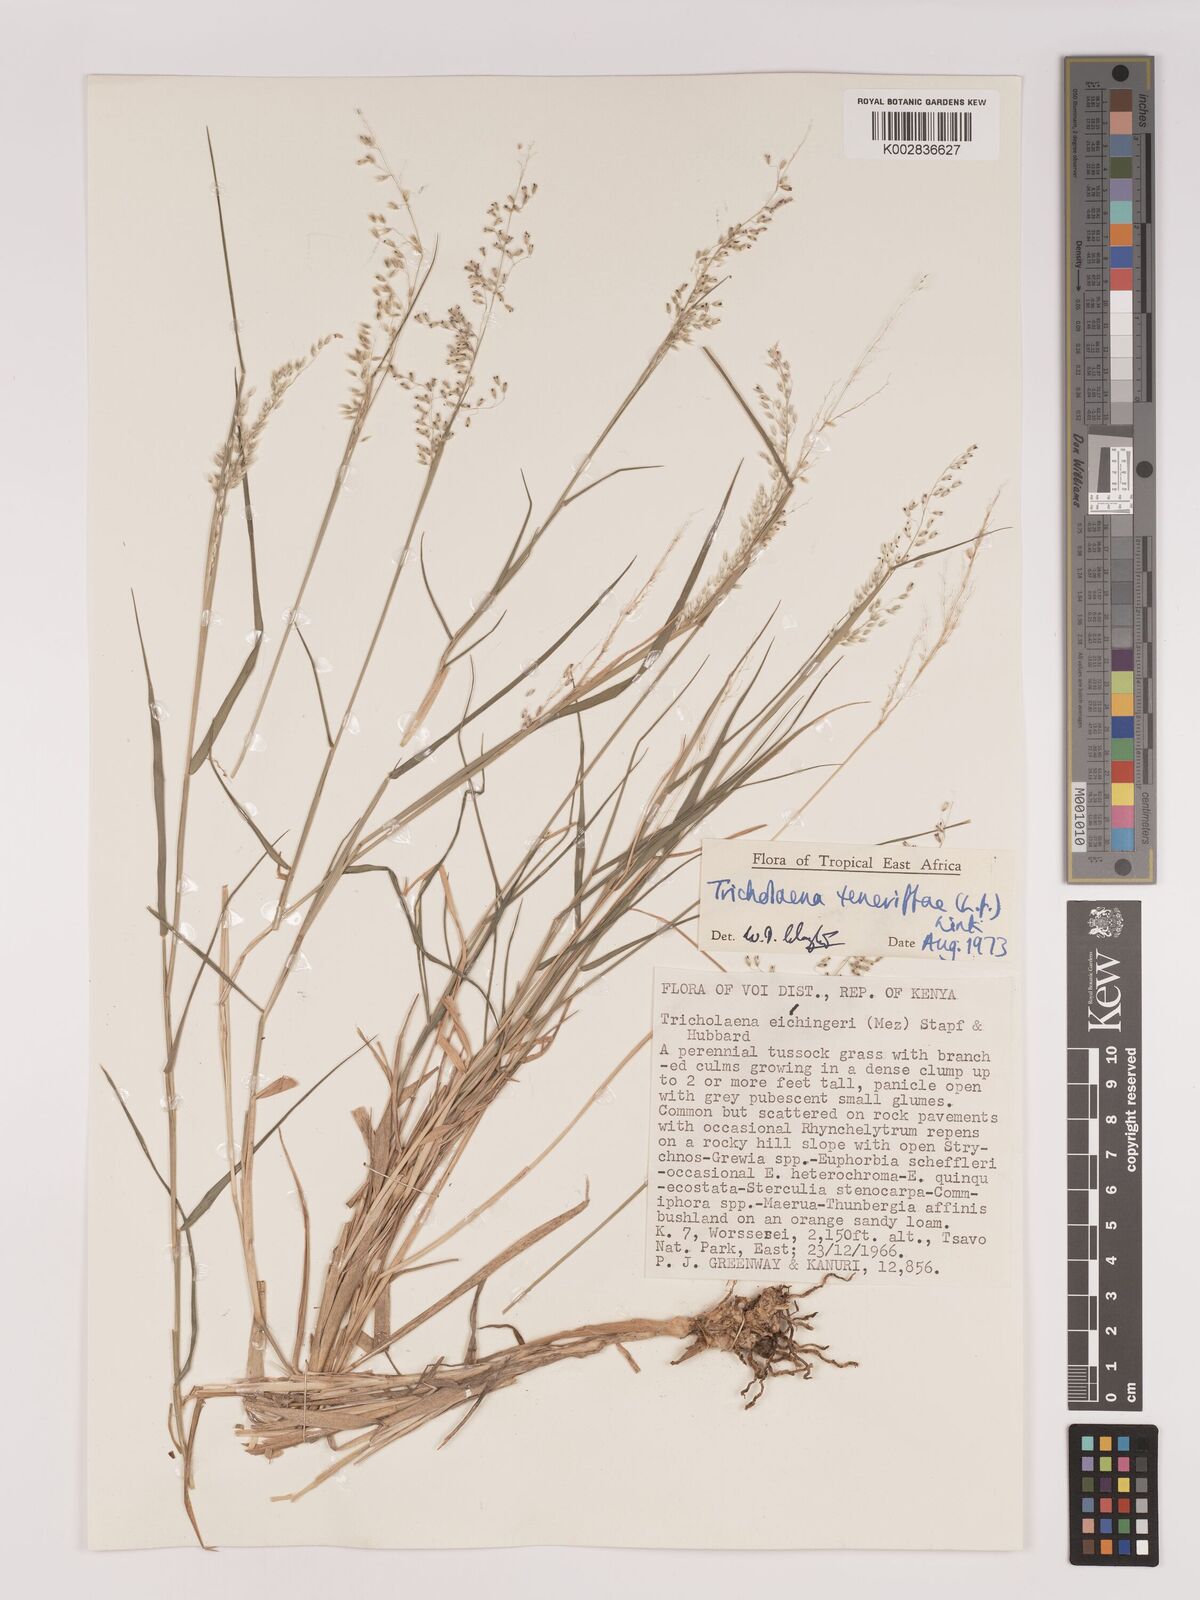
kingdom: Plantae
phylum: Tracheophyta
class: Liliopsida
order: Poales
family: Poaceae
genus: Tricholaena
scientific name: Tricholaena teneriffae
